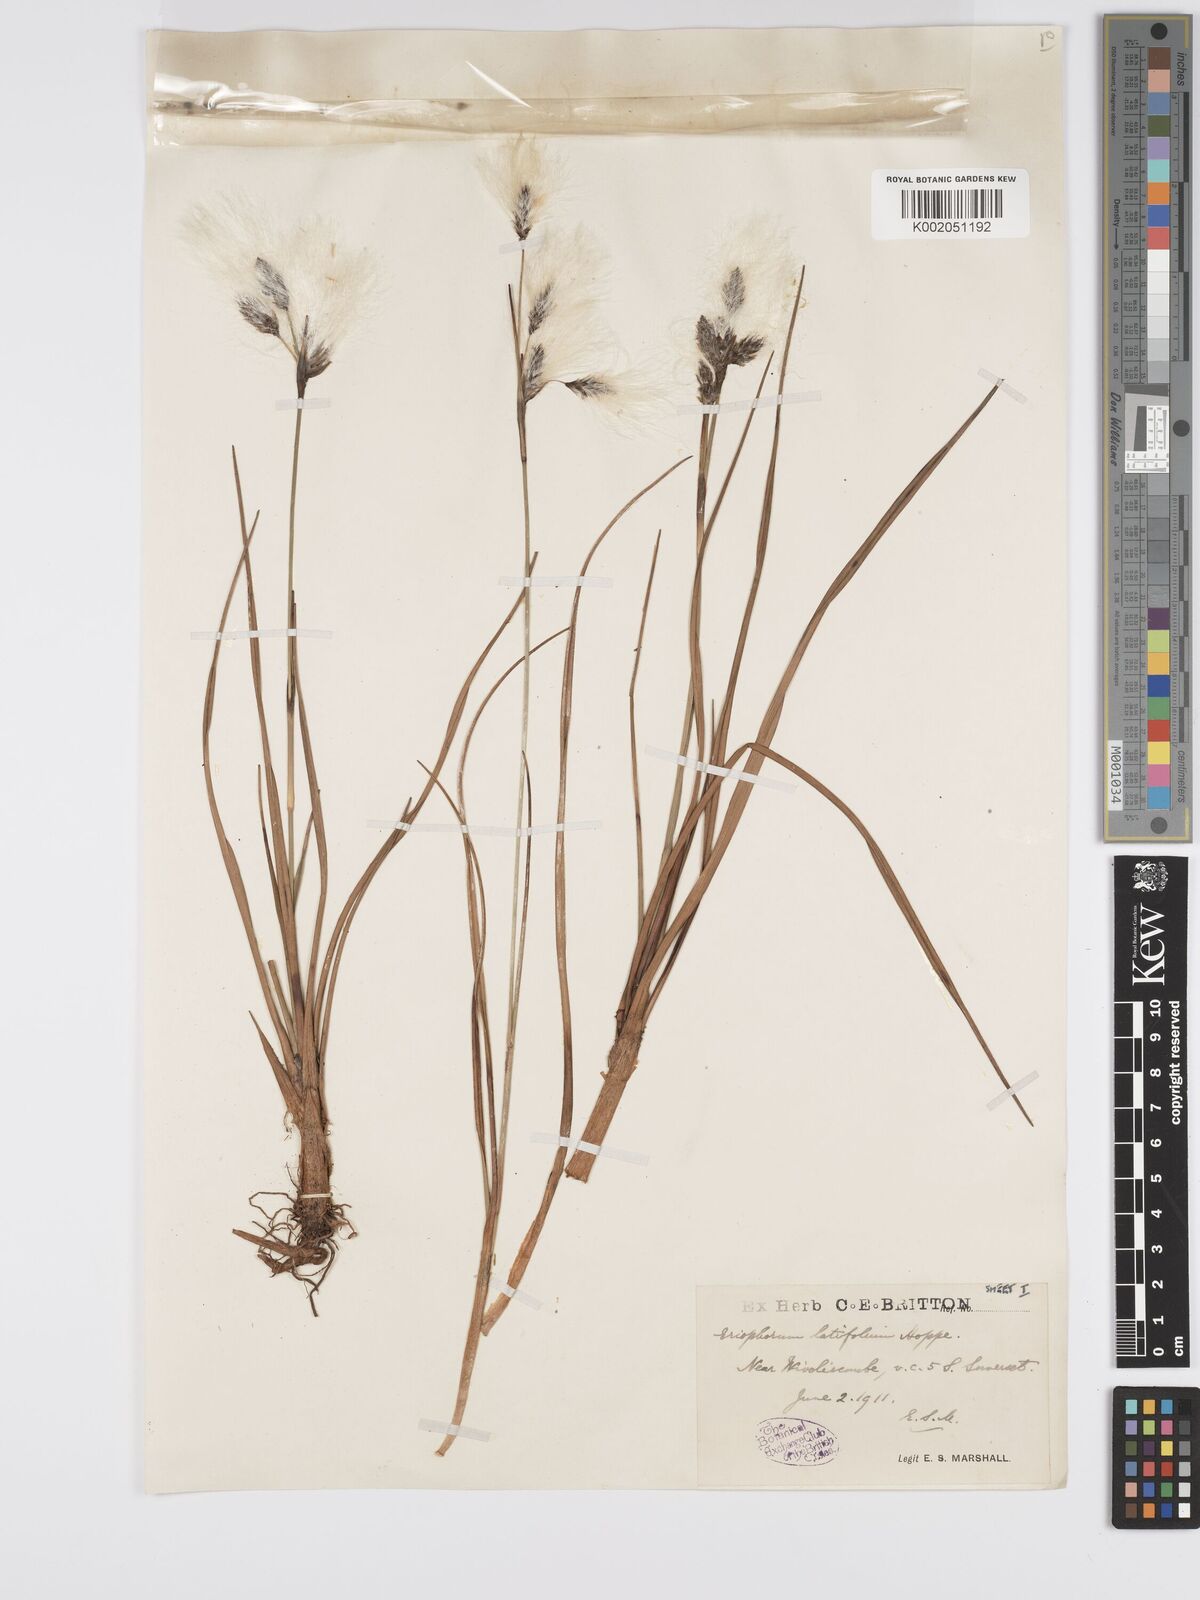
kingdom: Plantae
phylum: Tracheophyta
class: Liliopsida
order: Poales
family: Cyperaceae
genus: Eriophorum
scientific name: Eriophorum latifolium
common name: Broad-leaved cottongrass
